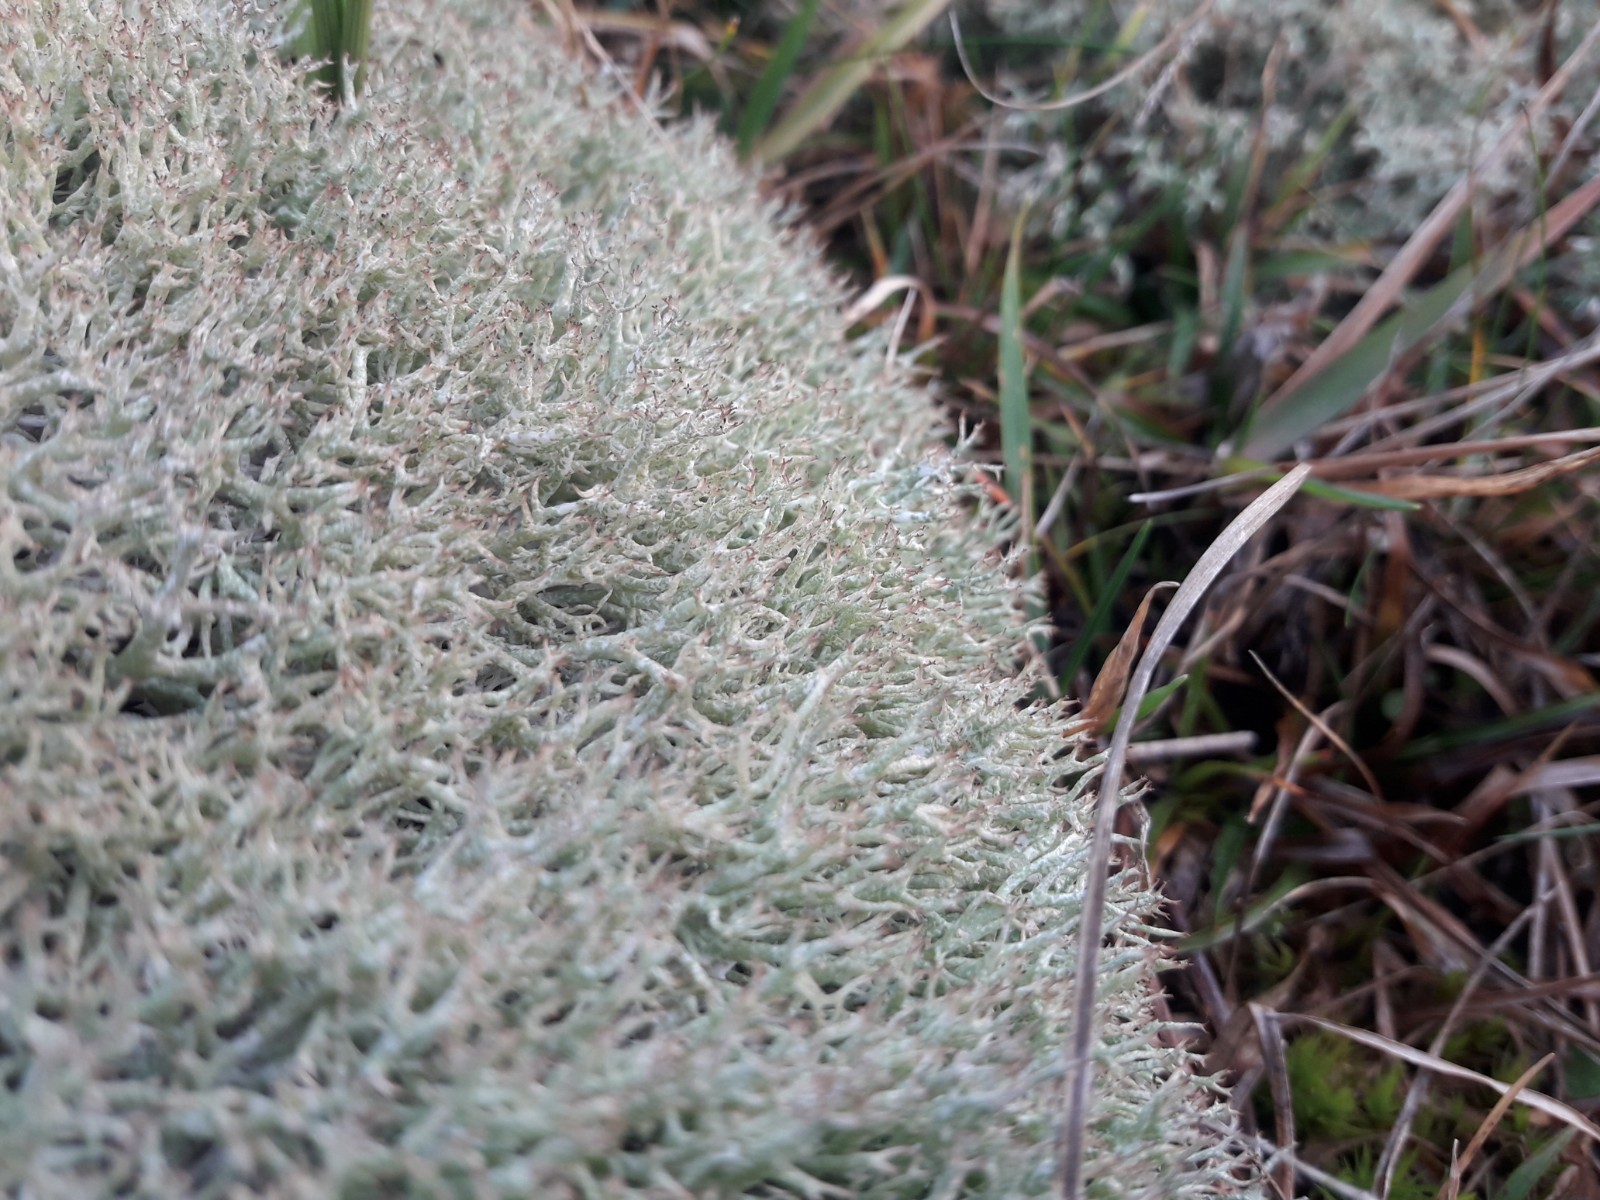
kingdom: Fungi
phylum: Ascomycota
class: Lecanoromycetes
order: Lecanorales
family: Cladoniaceae
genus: Cladonia
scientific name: Cladonia rangiformis
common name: spættet bægerlav
